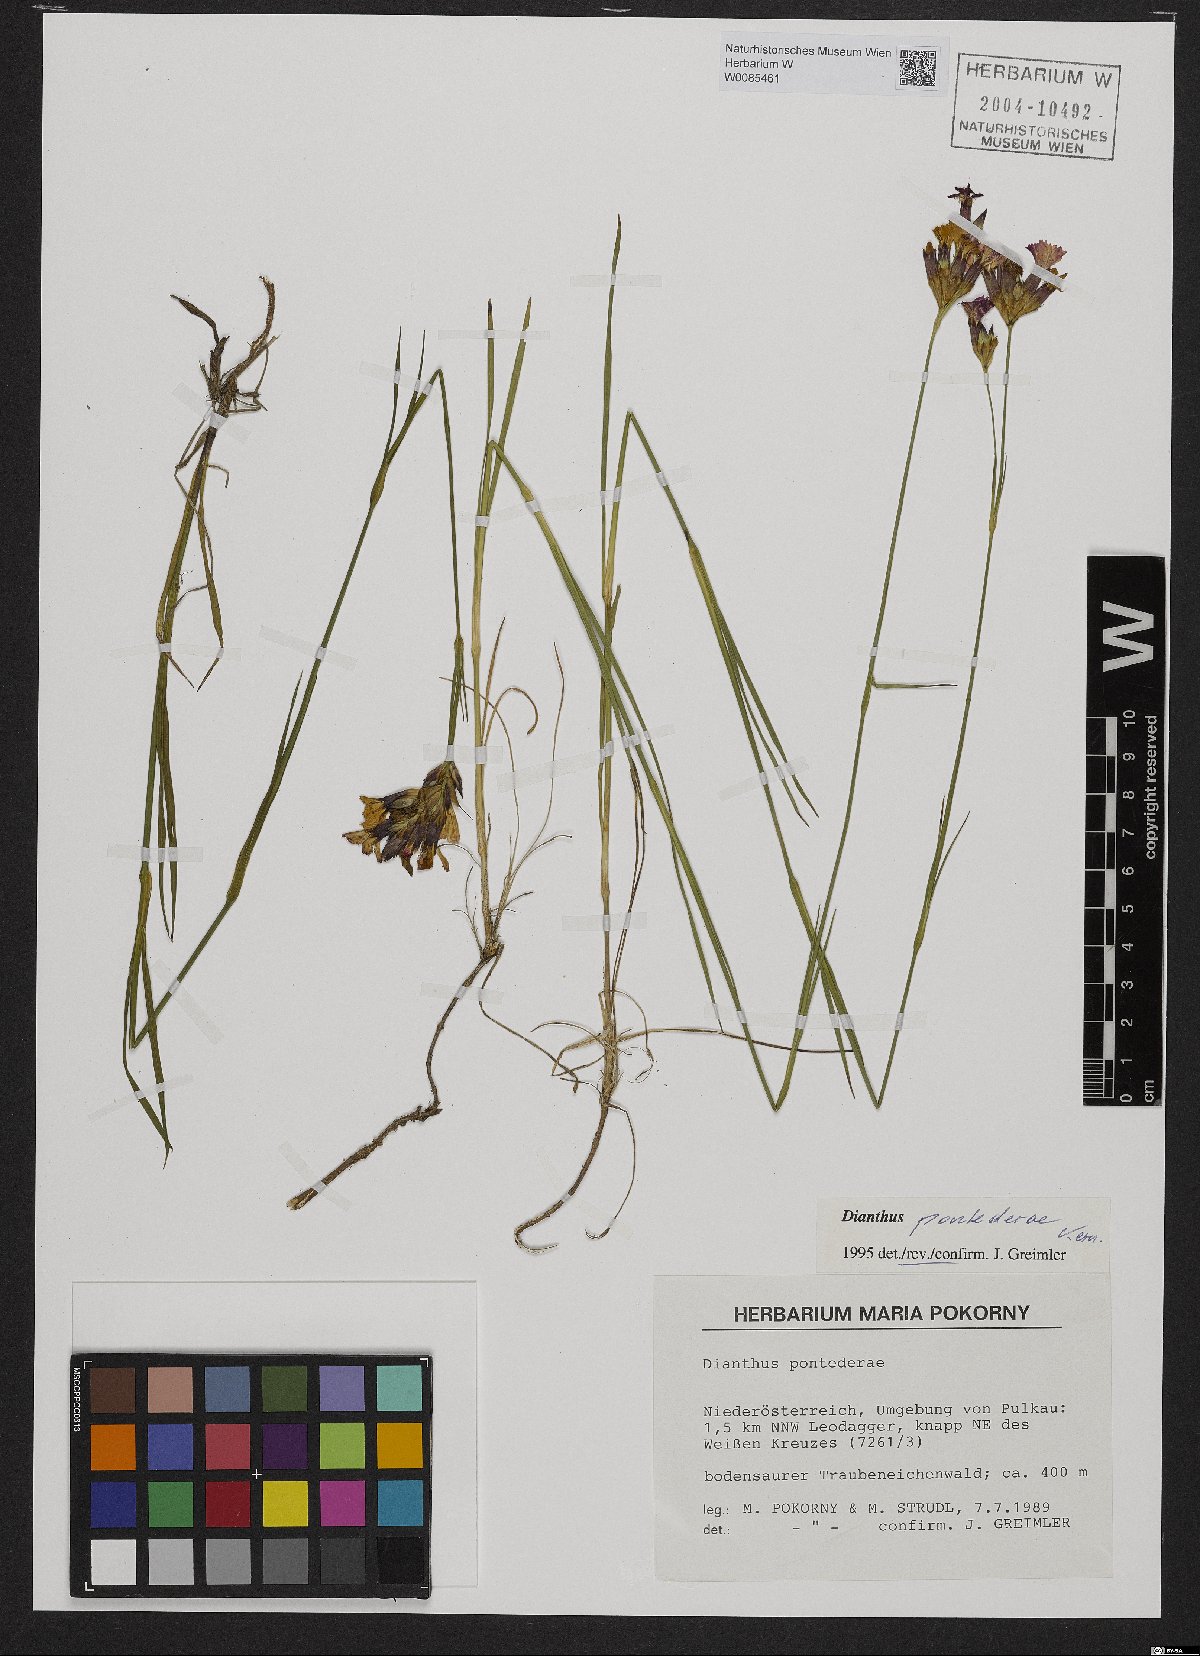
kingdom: Plantae
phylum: Tracheophyta
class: Magnoliopsida
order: Caryophyllales
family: Caryophyllaceae
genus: Dianthus
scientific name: Dianthus pontederae
